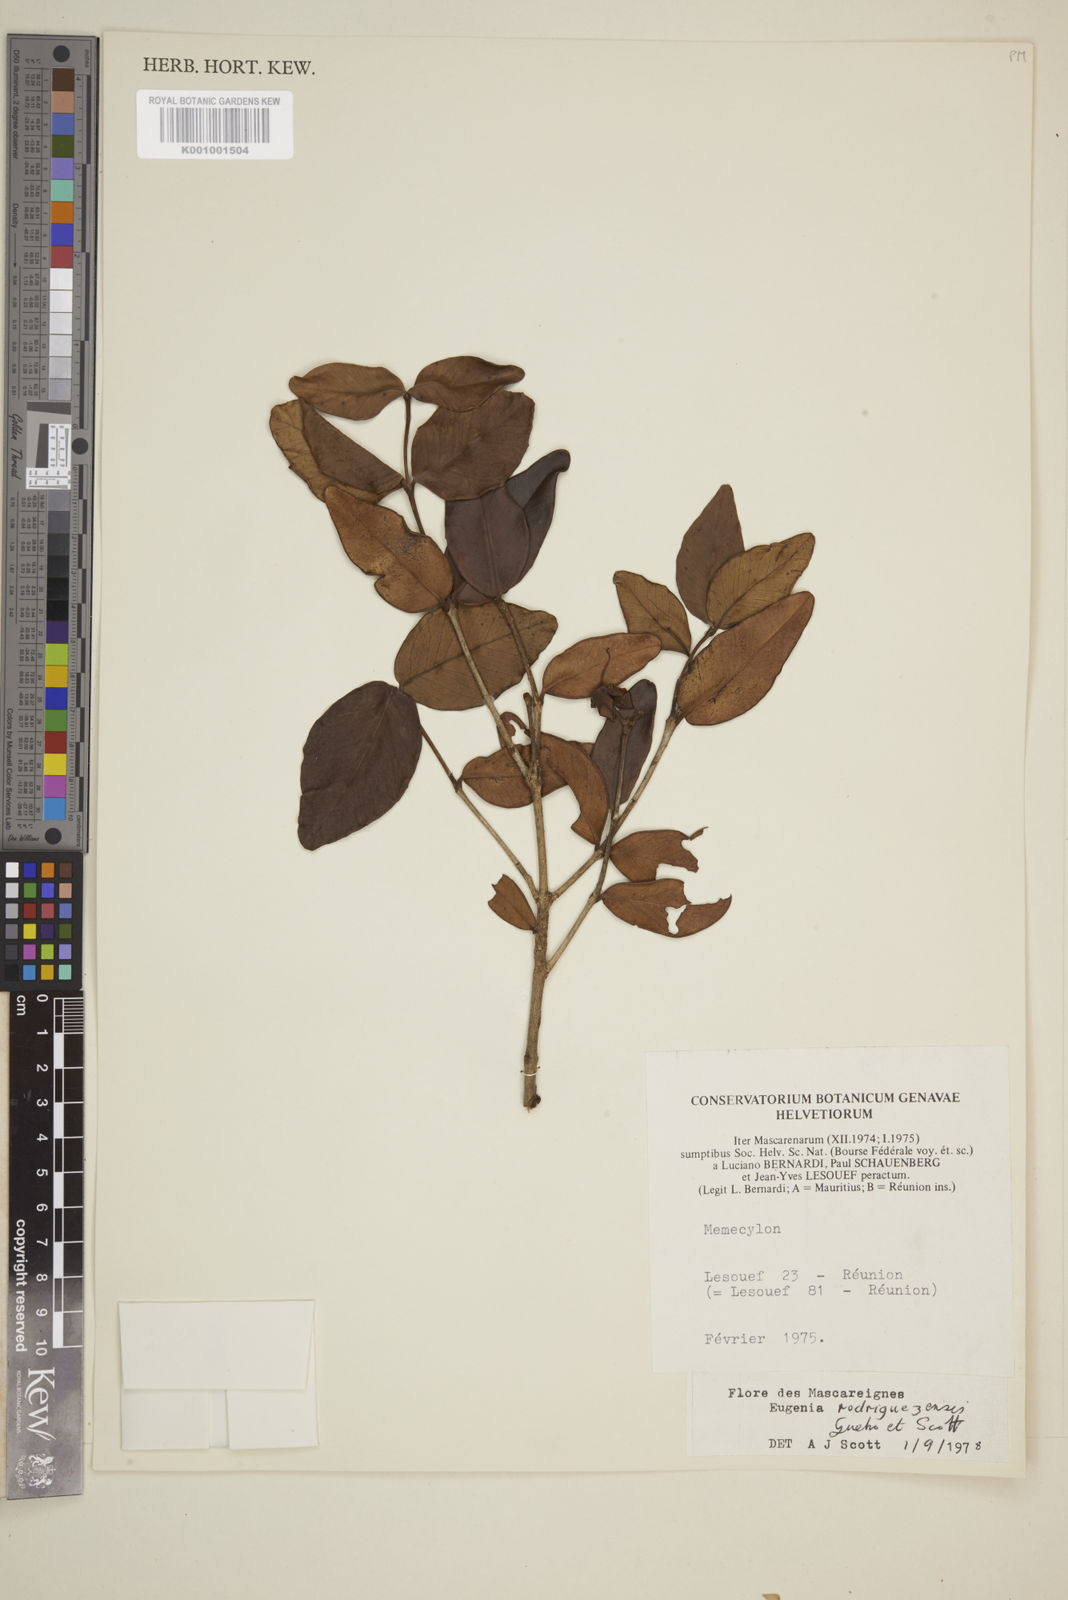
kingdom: Plantae
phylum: Tracheophyta
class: Magnoliopsida
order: Myrtales
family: Myrtaceae
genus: Eugenia
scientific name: Eugenia
